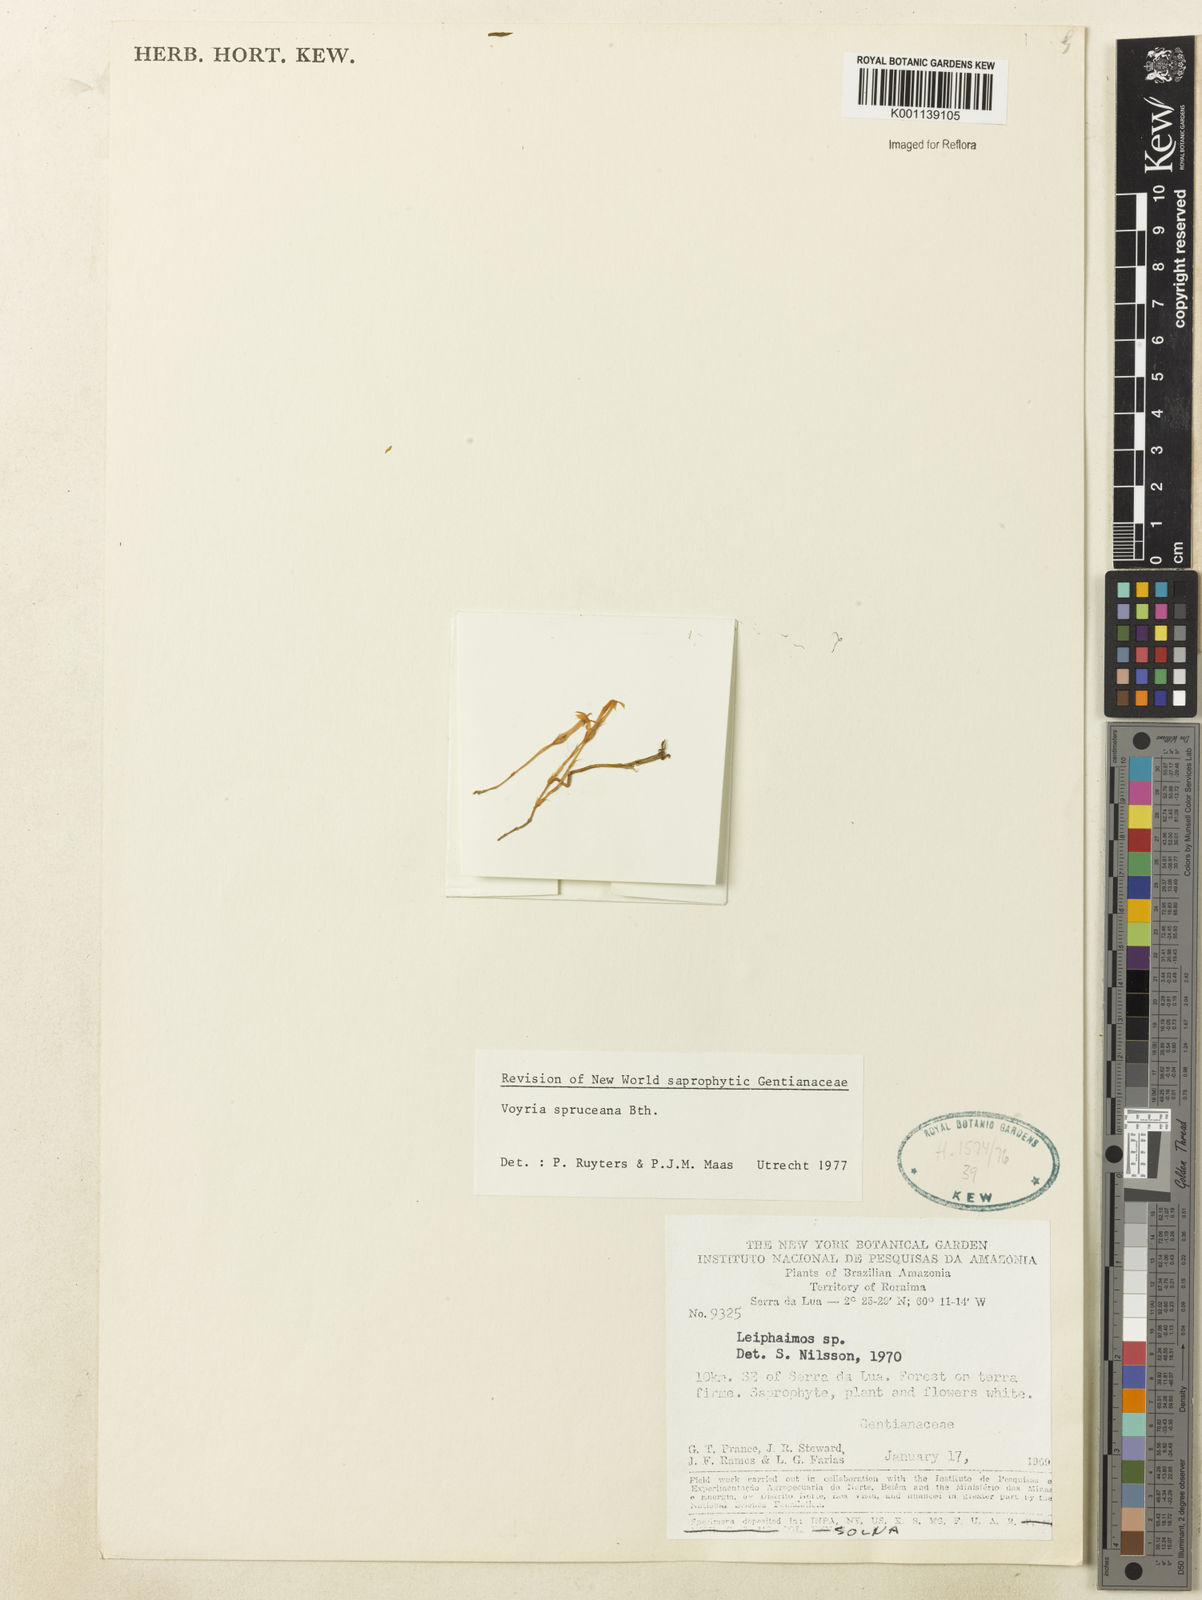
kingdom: Plantae
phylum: Tracheophyta
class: Magnoliopsida
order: Gentianales
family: Gentianaceae
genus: Voyria
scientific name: Voyria spruceana
